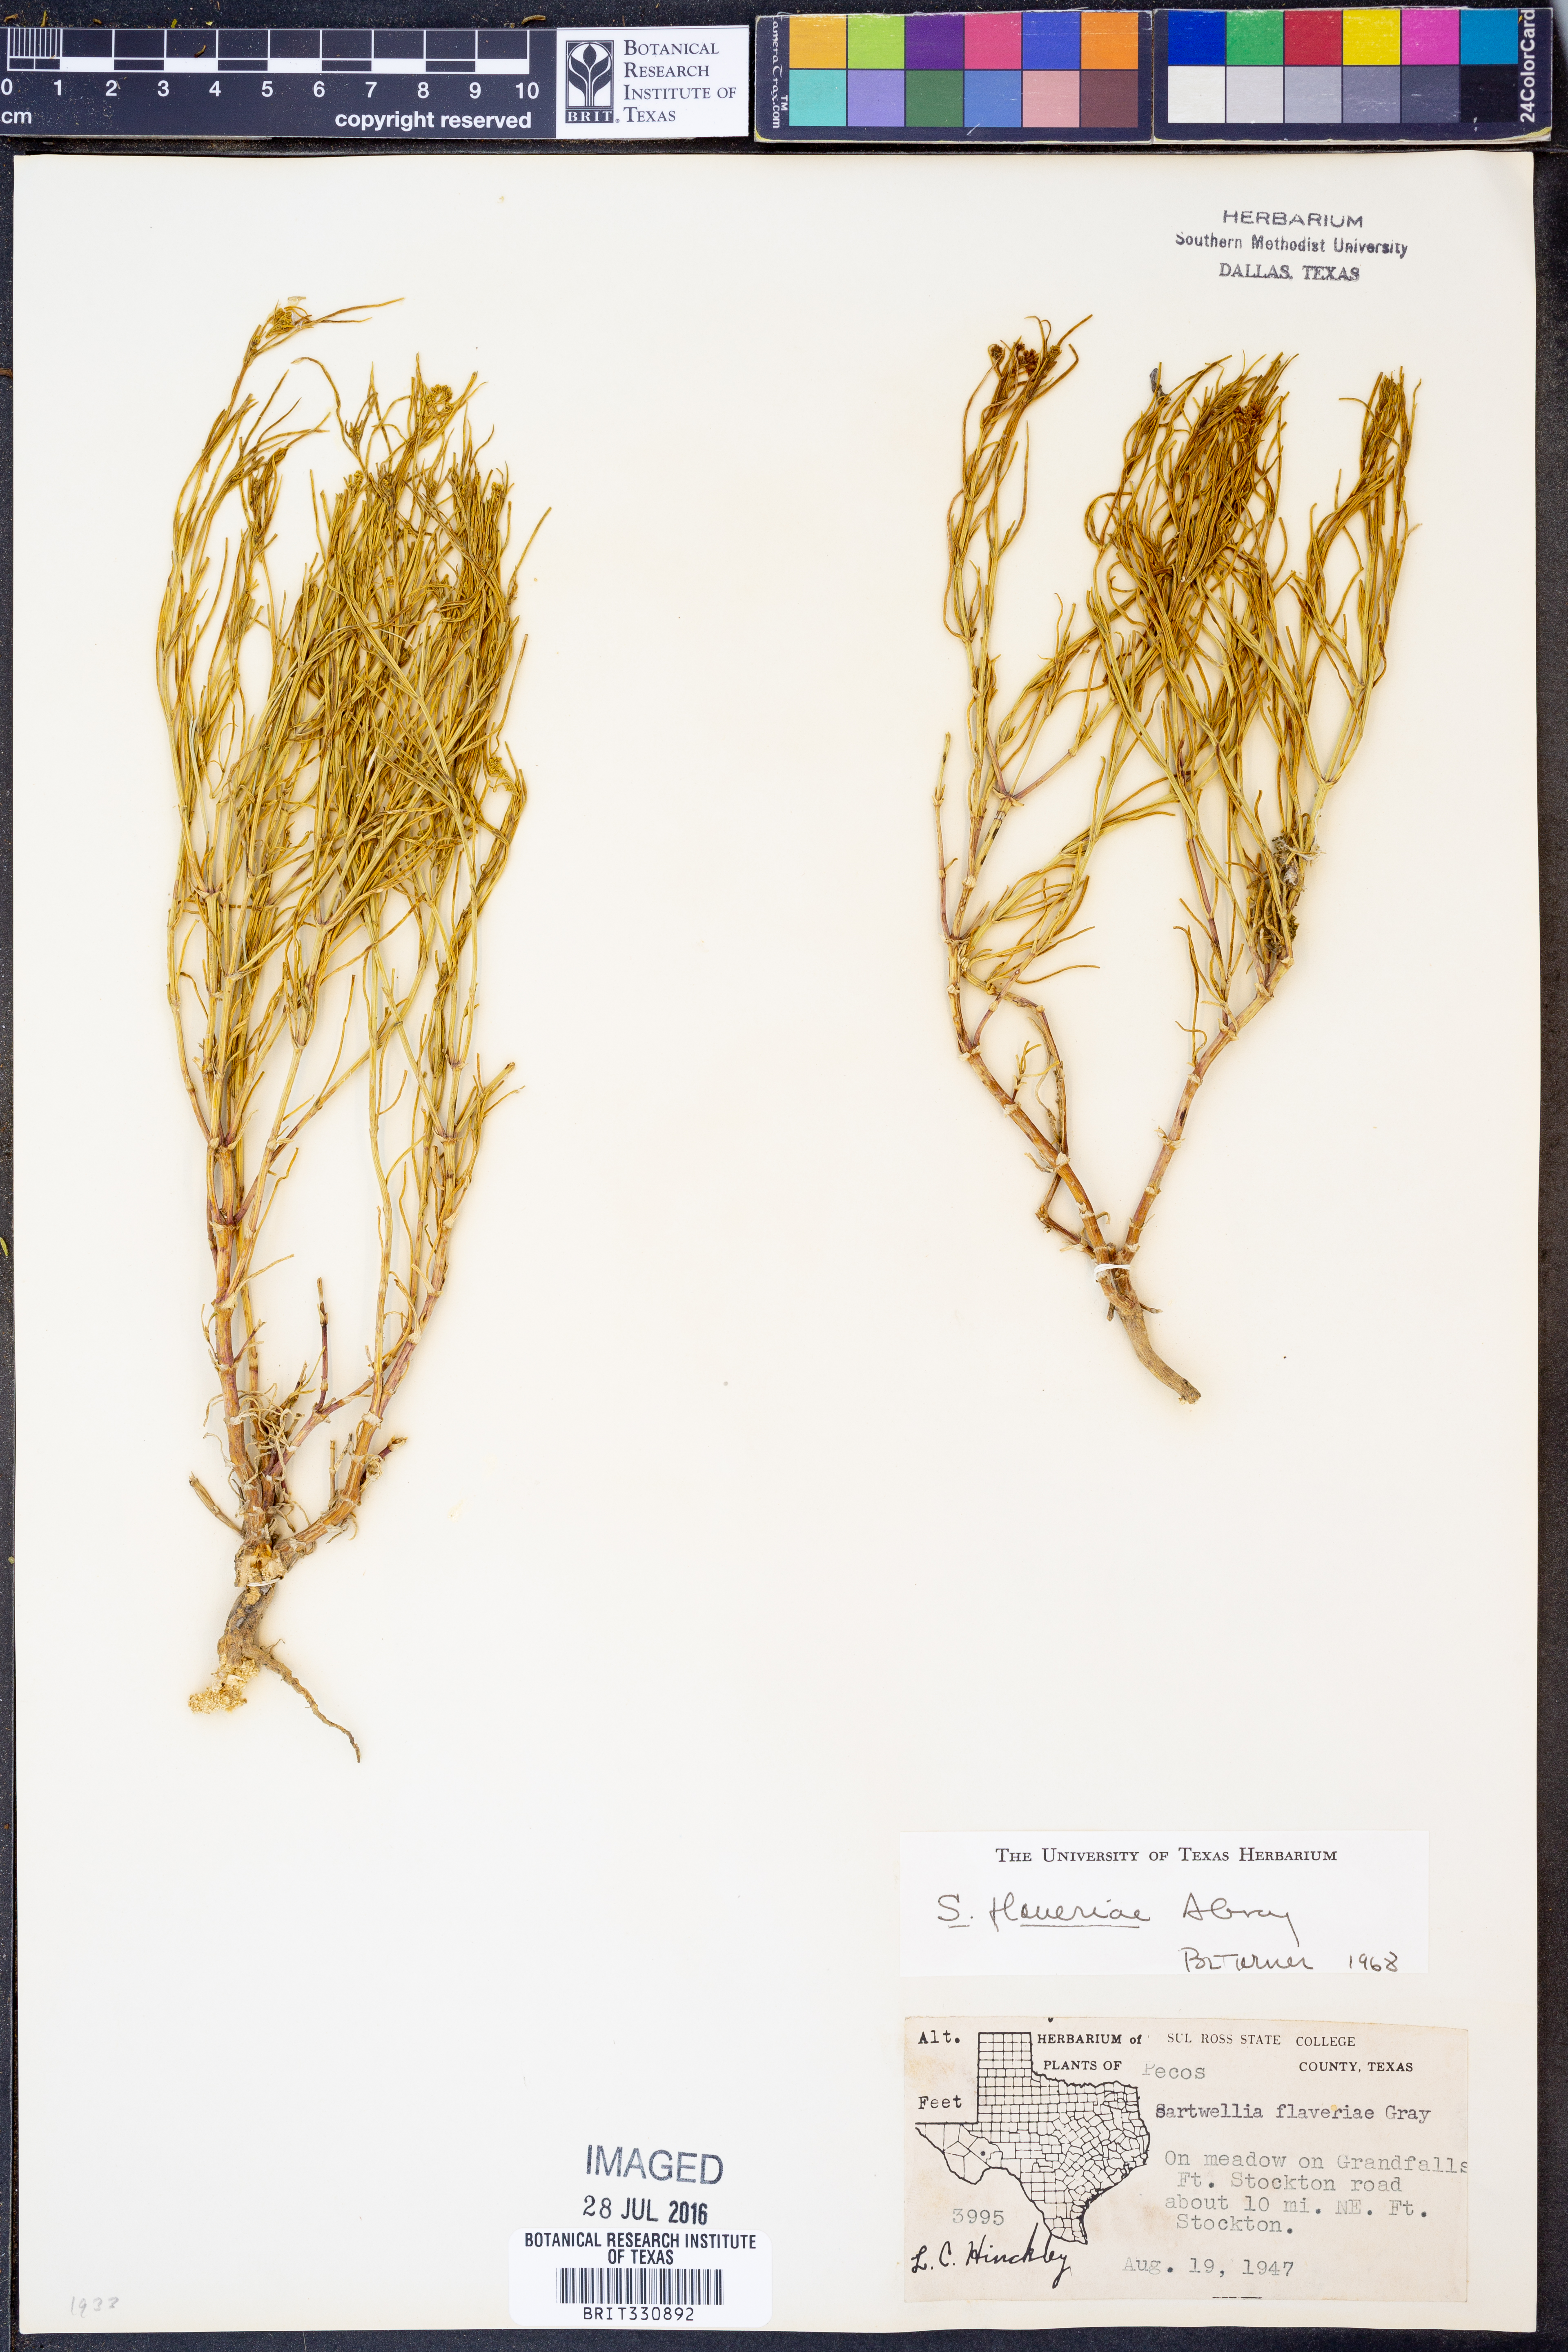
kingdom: Plantae
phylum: Tracheophyta
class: Magnoliopsida
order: Asterales
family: Asteraceae
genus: Sartwellia
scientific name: Sartwellia flaveriae
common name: Sartwellia
